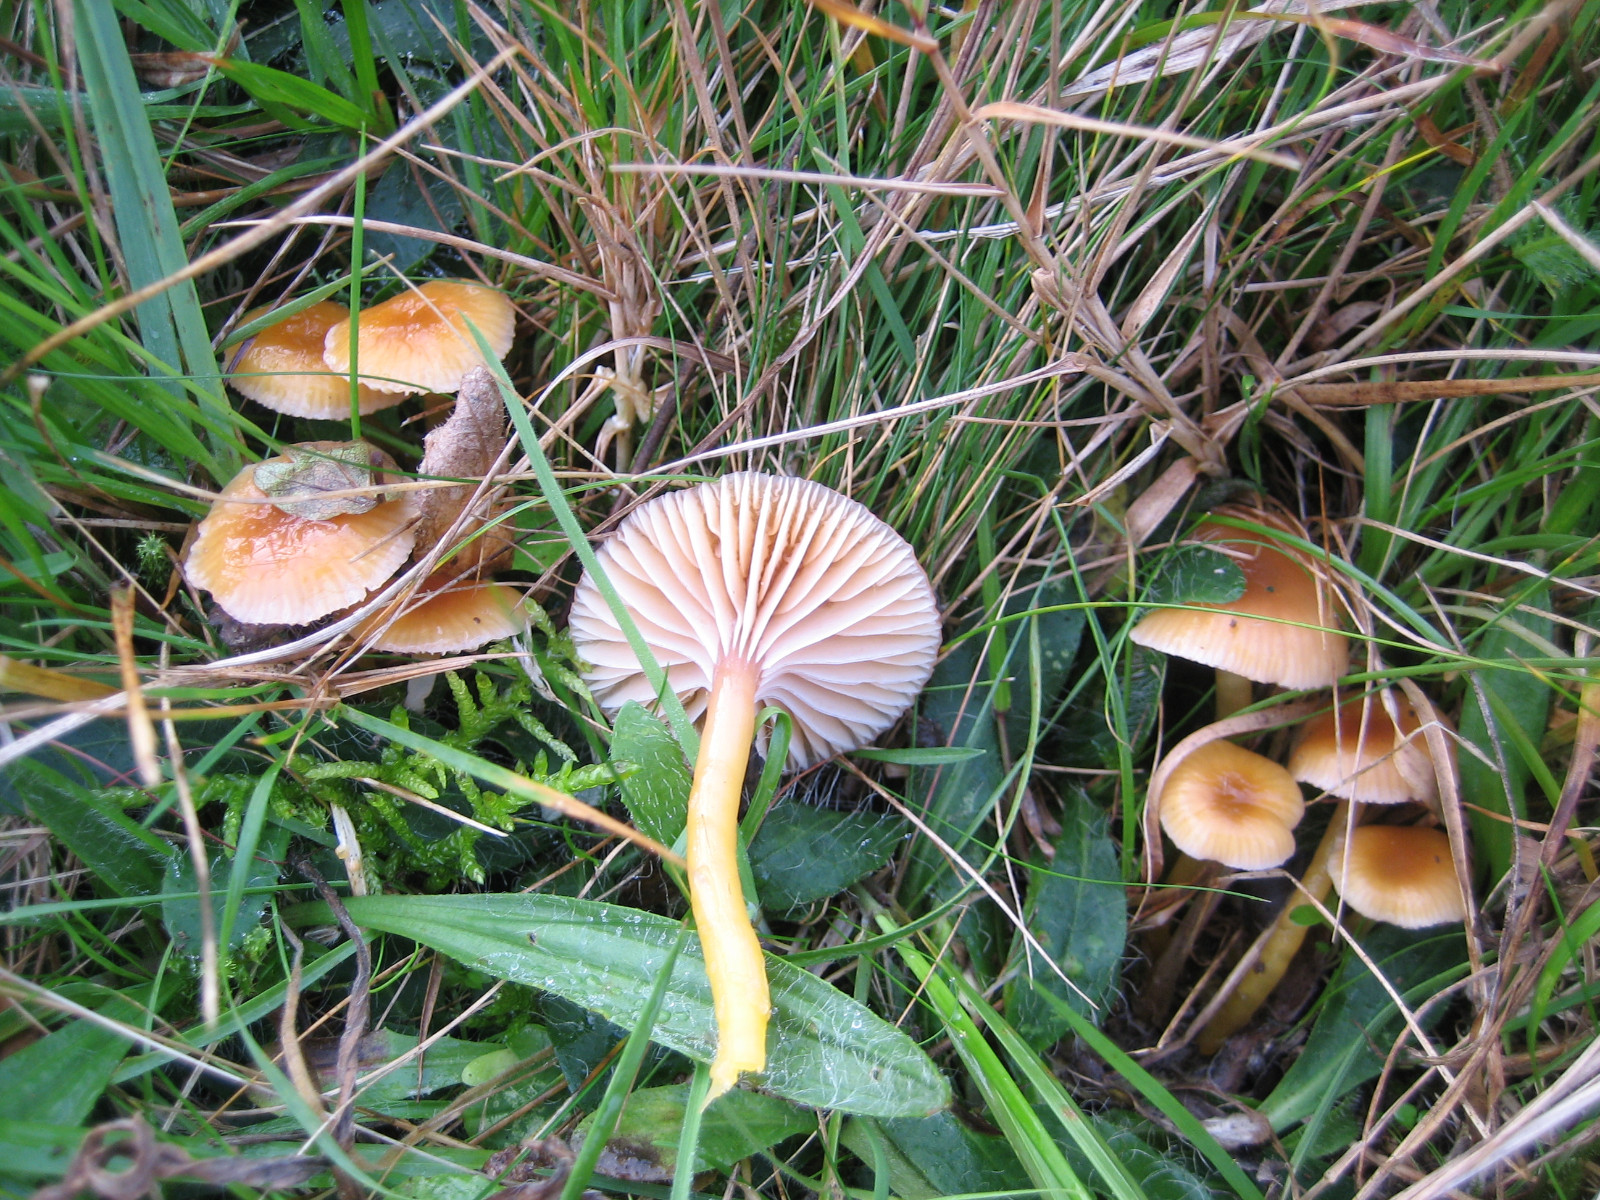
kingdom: Fungi
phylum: Basidiomycota
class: Agaricomycetes
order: Agaricales
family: Hygrophoraceae
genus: Gliophorus
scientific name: Gliophorus laetus
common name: brusk-vokshat
